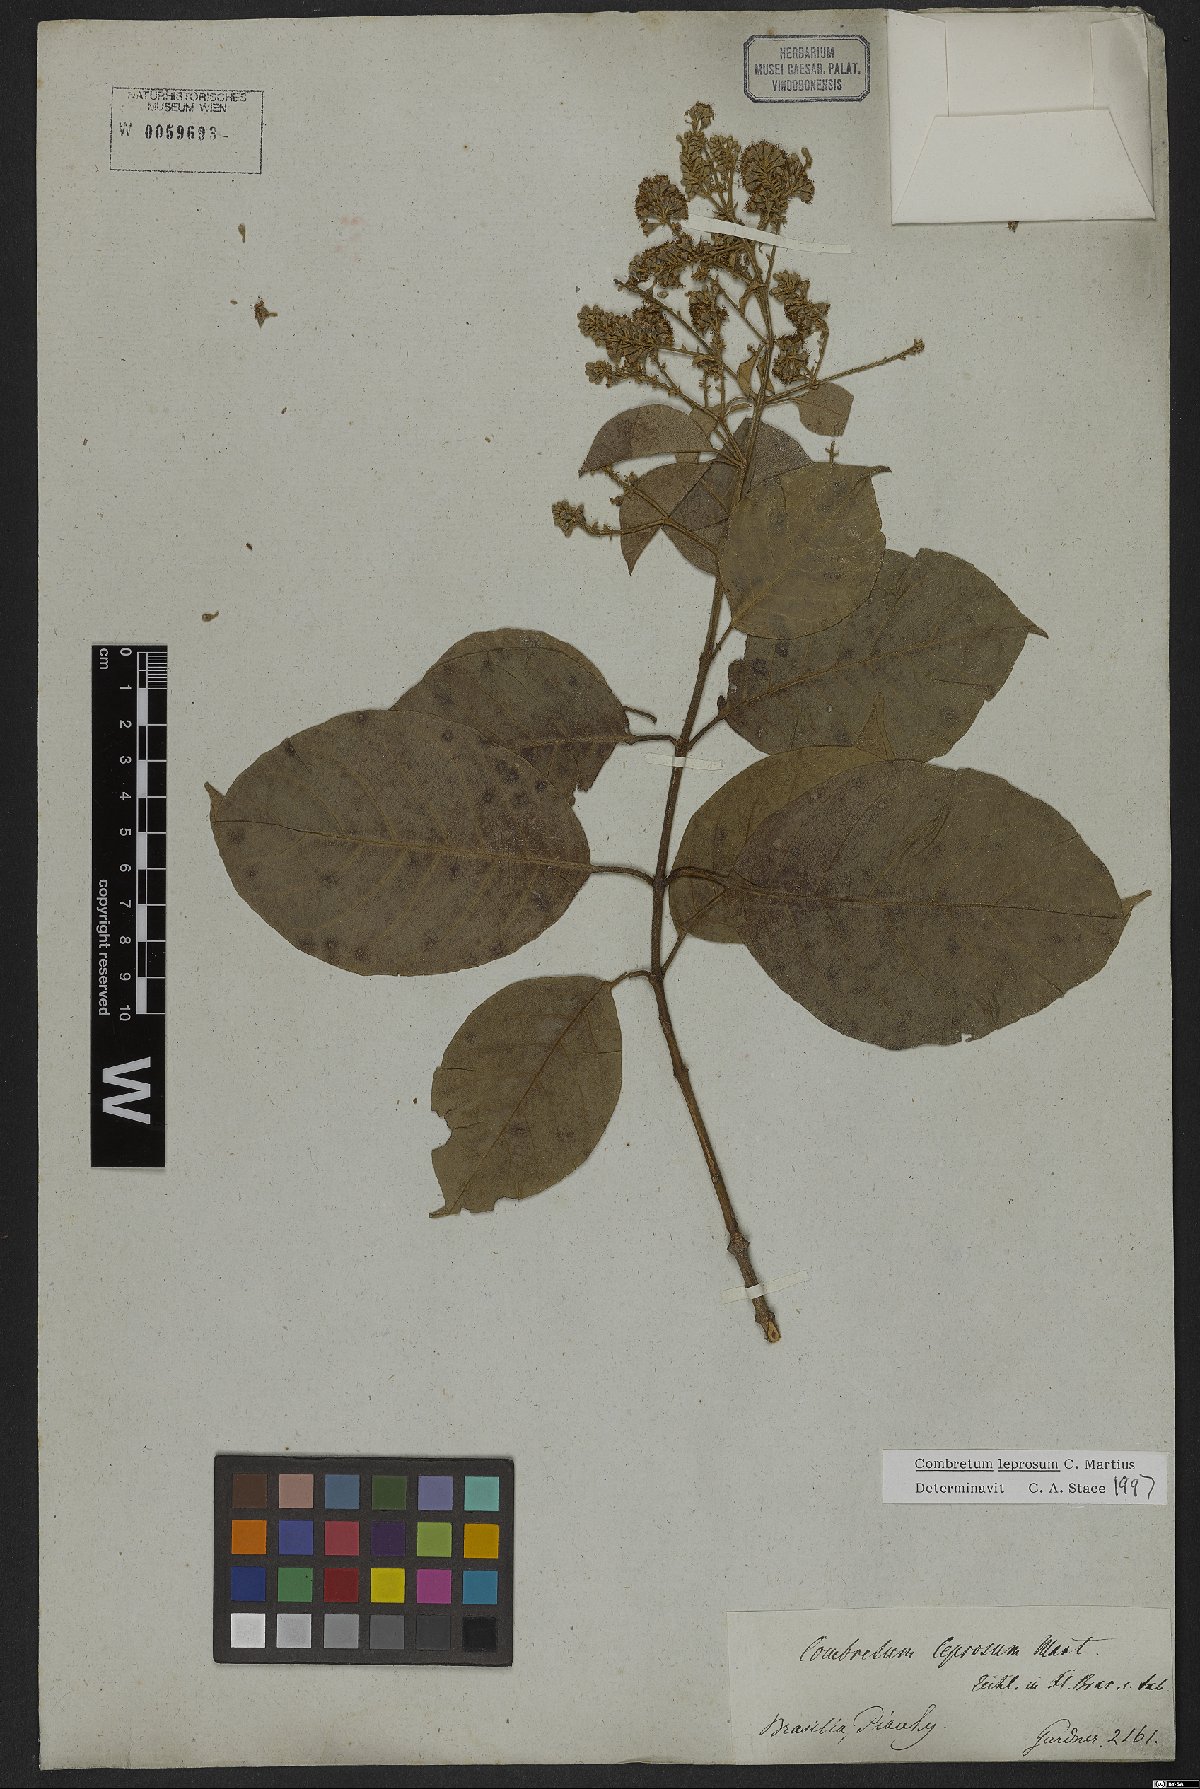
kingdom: Plantae
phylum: Tracheophyta
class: Magnoliopsida
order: Myrtales
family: Combretaceae
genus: Combretum
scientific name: Combretum leprosum
